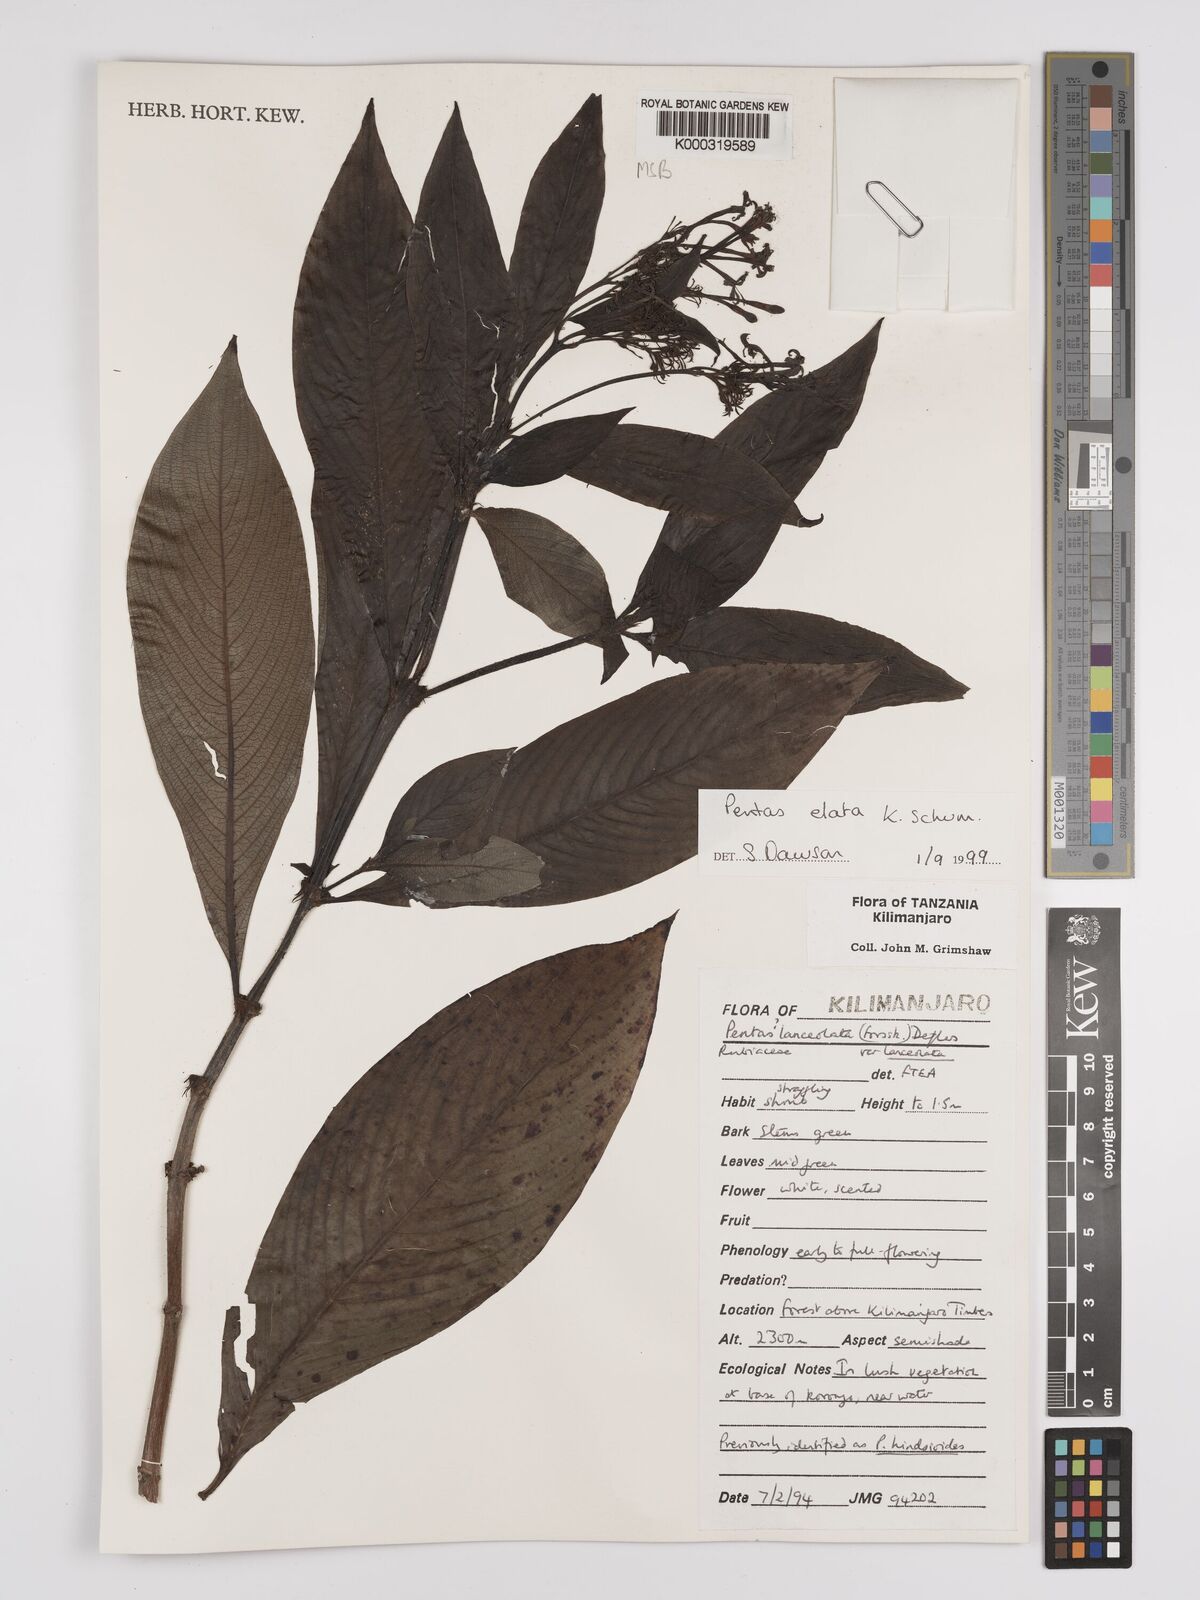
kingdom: Plantae
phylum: Tracheophyta
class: Magnoliopsida
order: Gentianales
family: Rubiaceae
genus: Phyllopentas
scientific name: Phyllopentas elata
